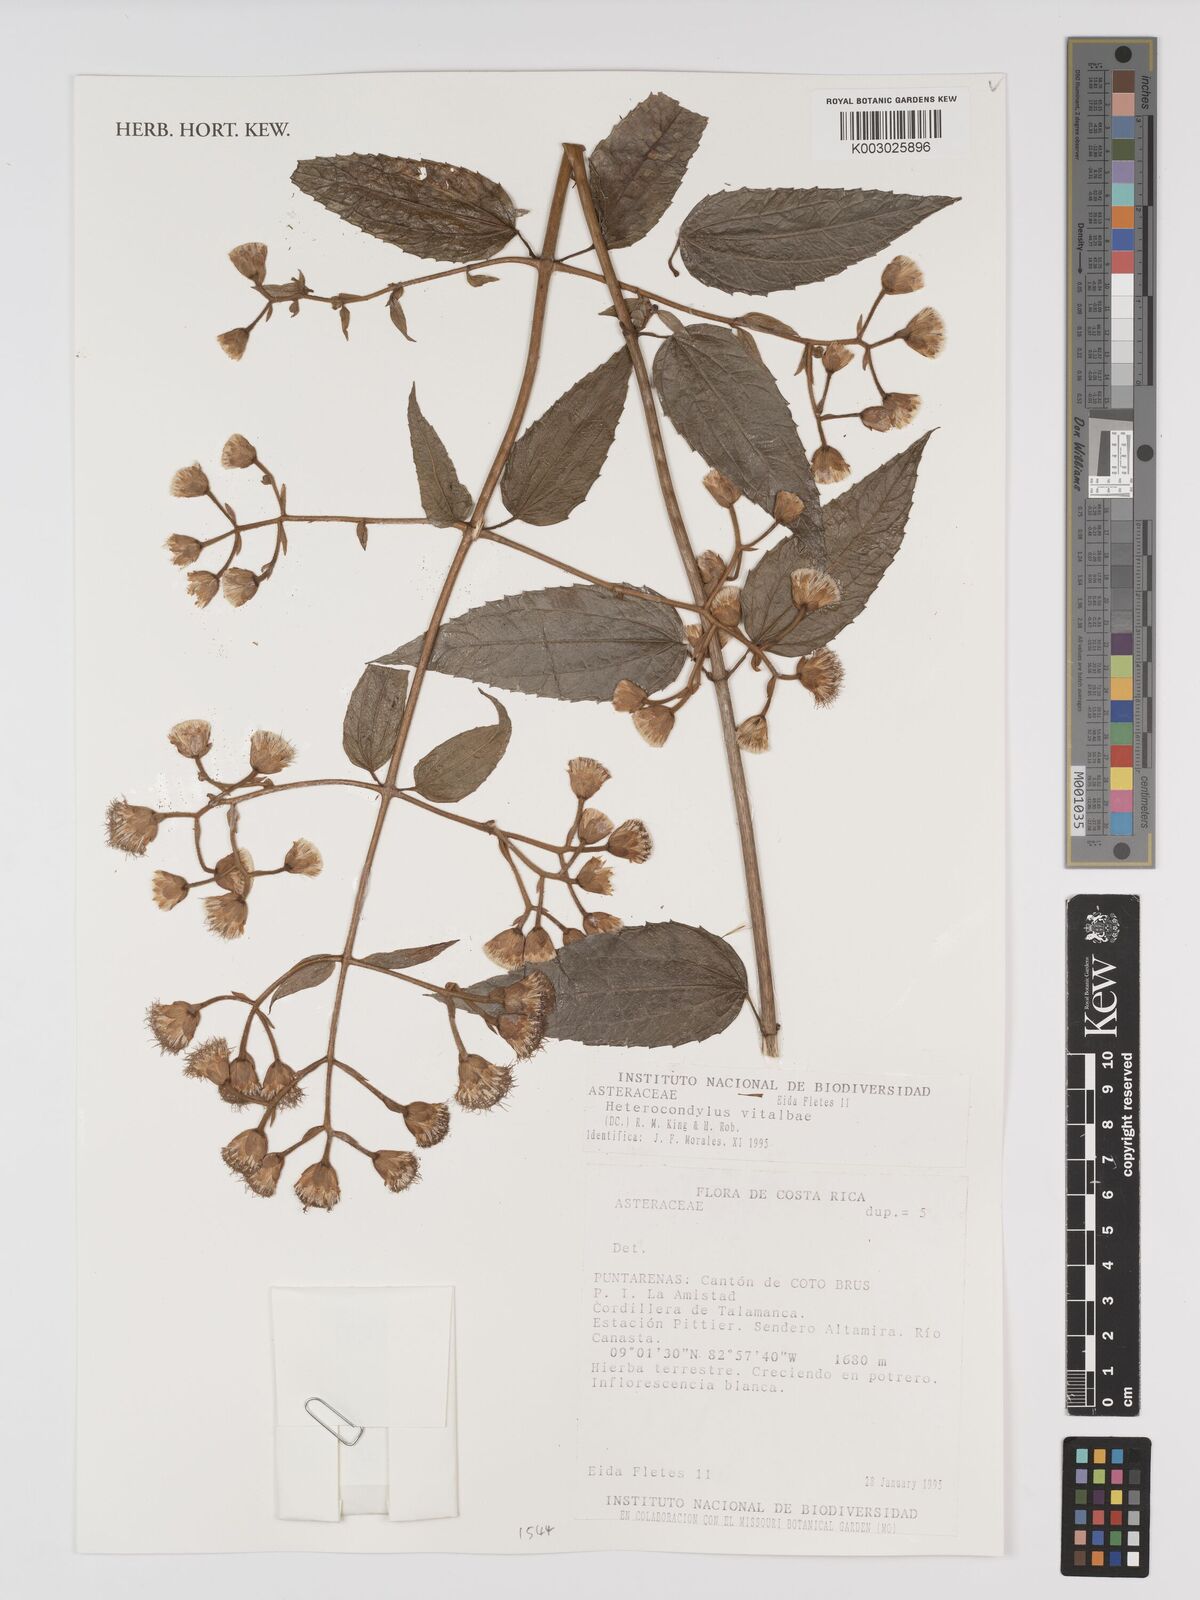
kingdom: Plantae
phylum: Tracheophyta
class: Magnoliopsida
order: Asterales
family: Asteraceae
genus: Heterocondylus
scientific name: Heterocondylus vitalbae
